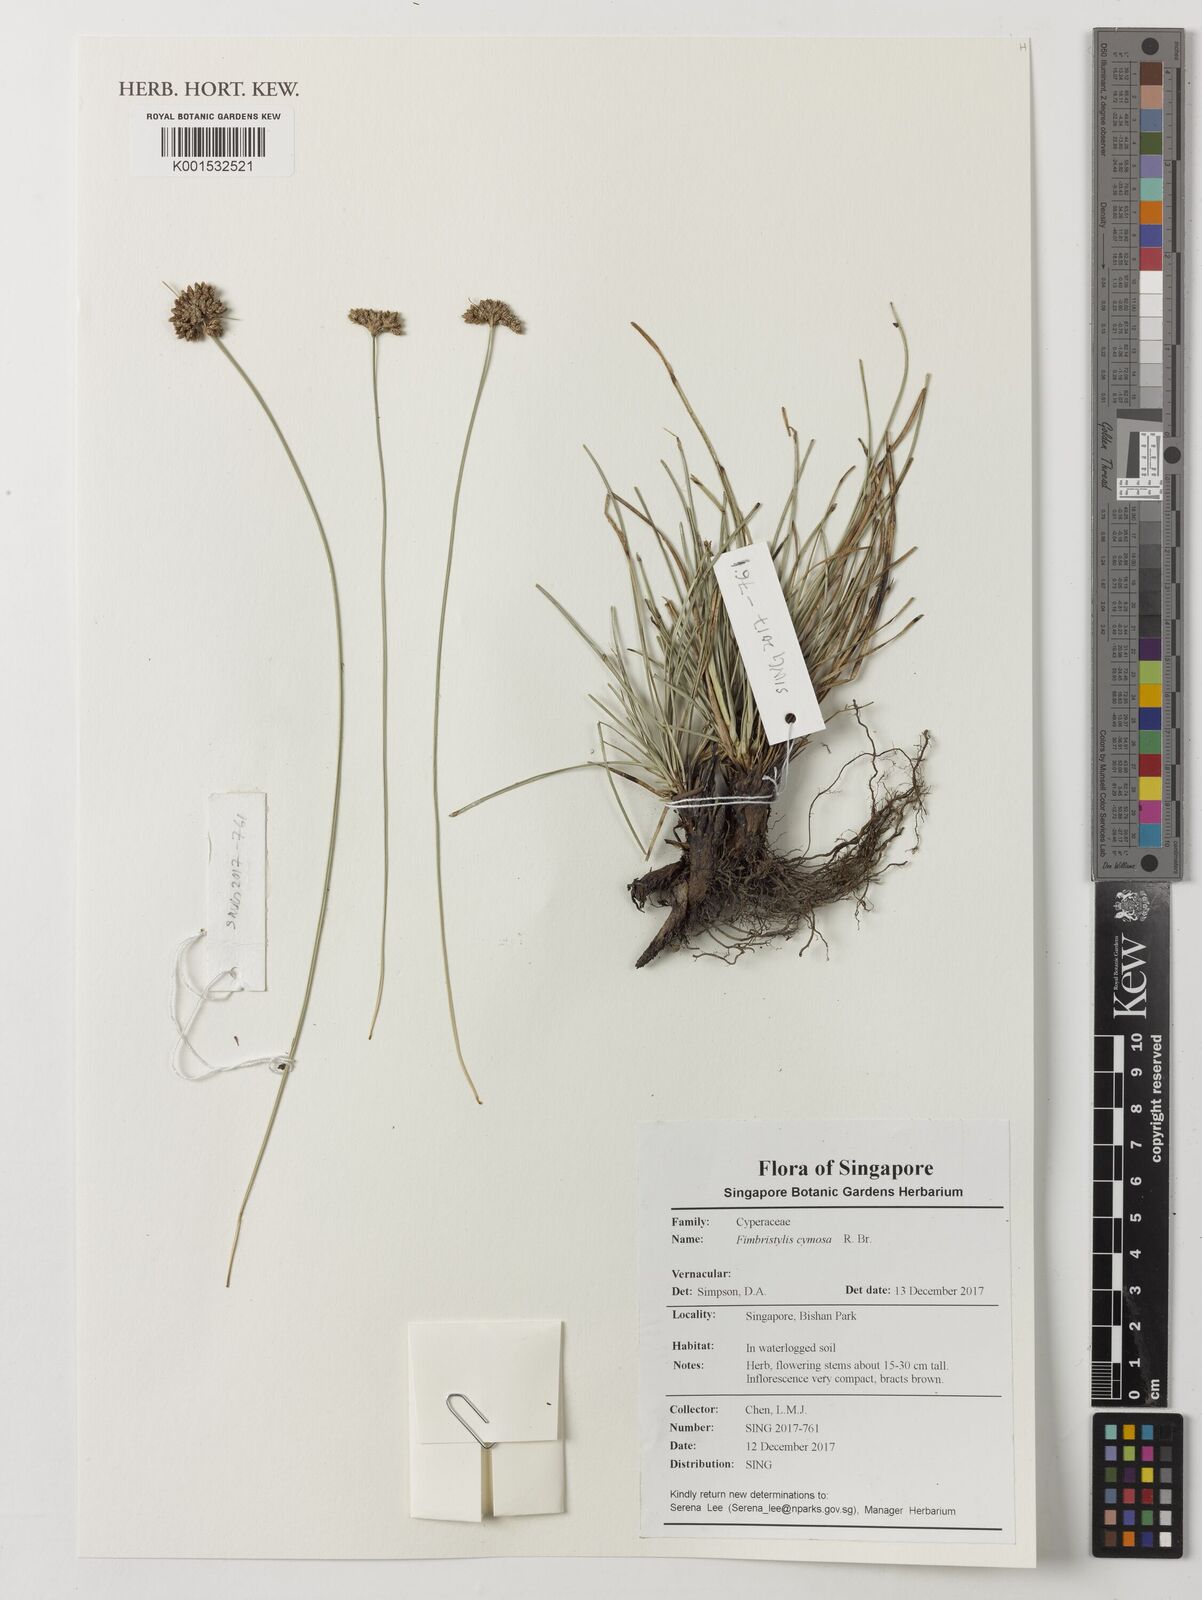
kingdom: Plantae
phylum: Tracheophyta
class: Liliopsida
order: Poales
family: Cyperaceae
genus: Fimbristylis
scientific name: Fimbristylis cymosa
